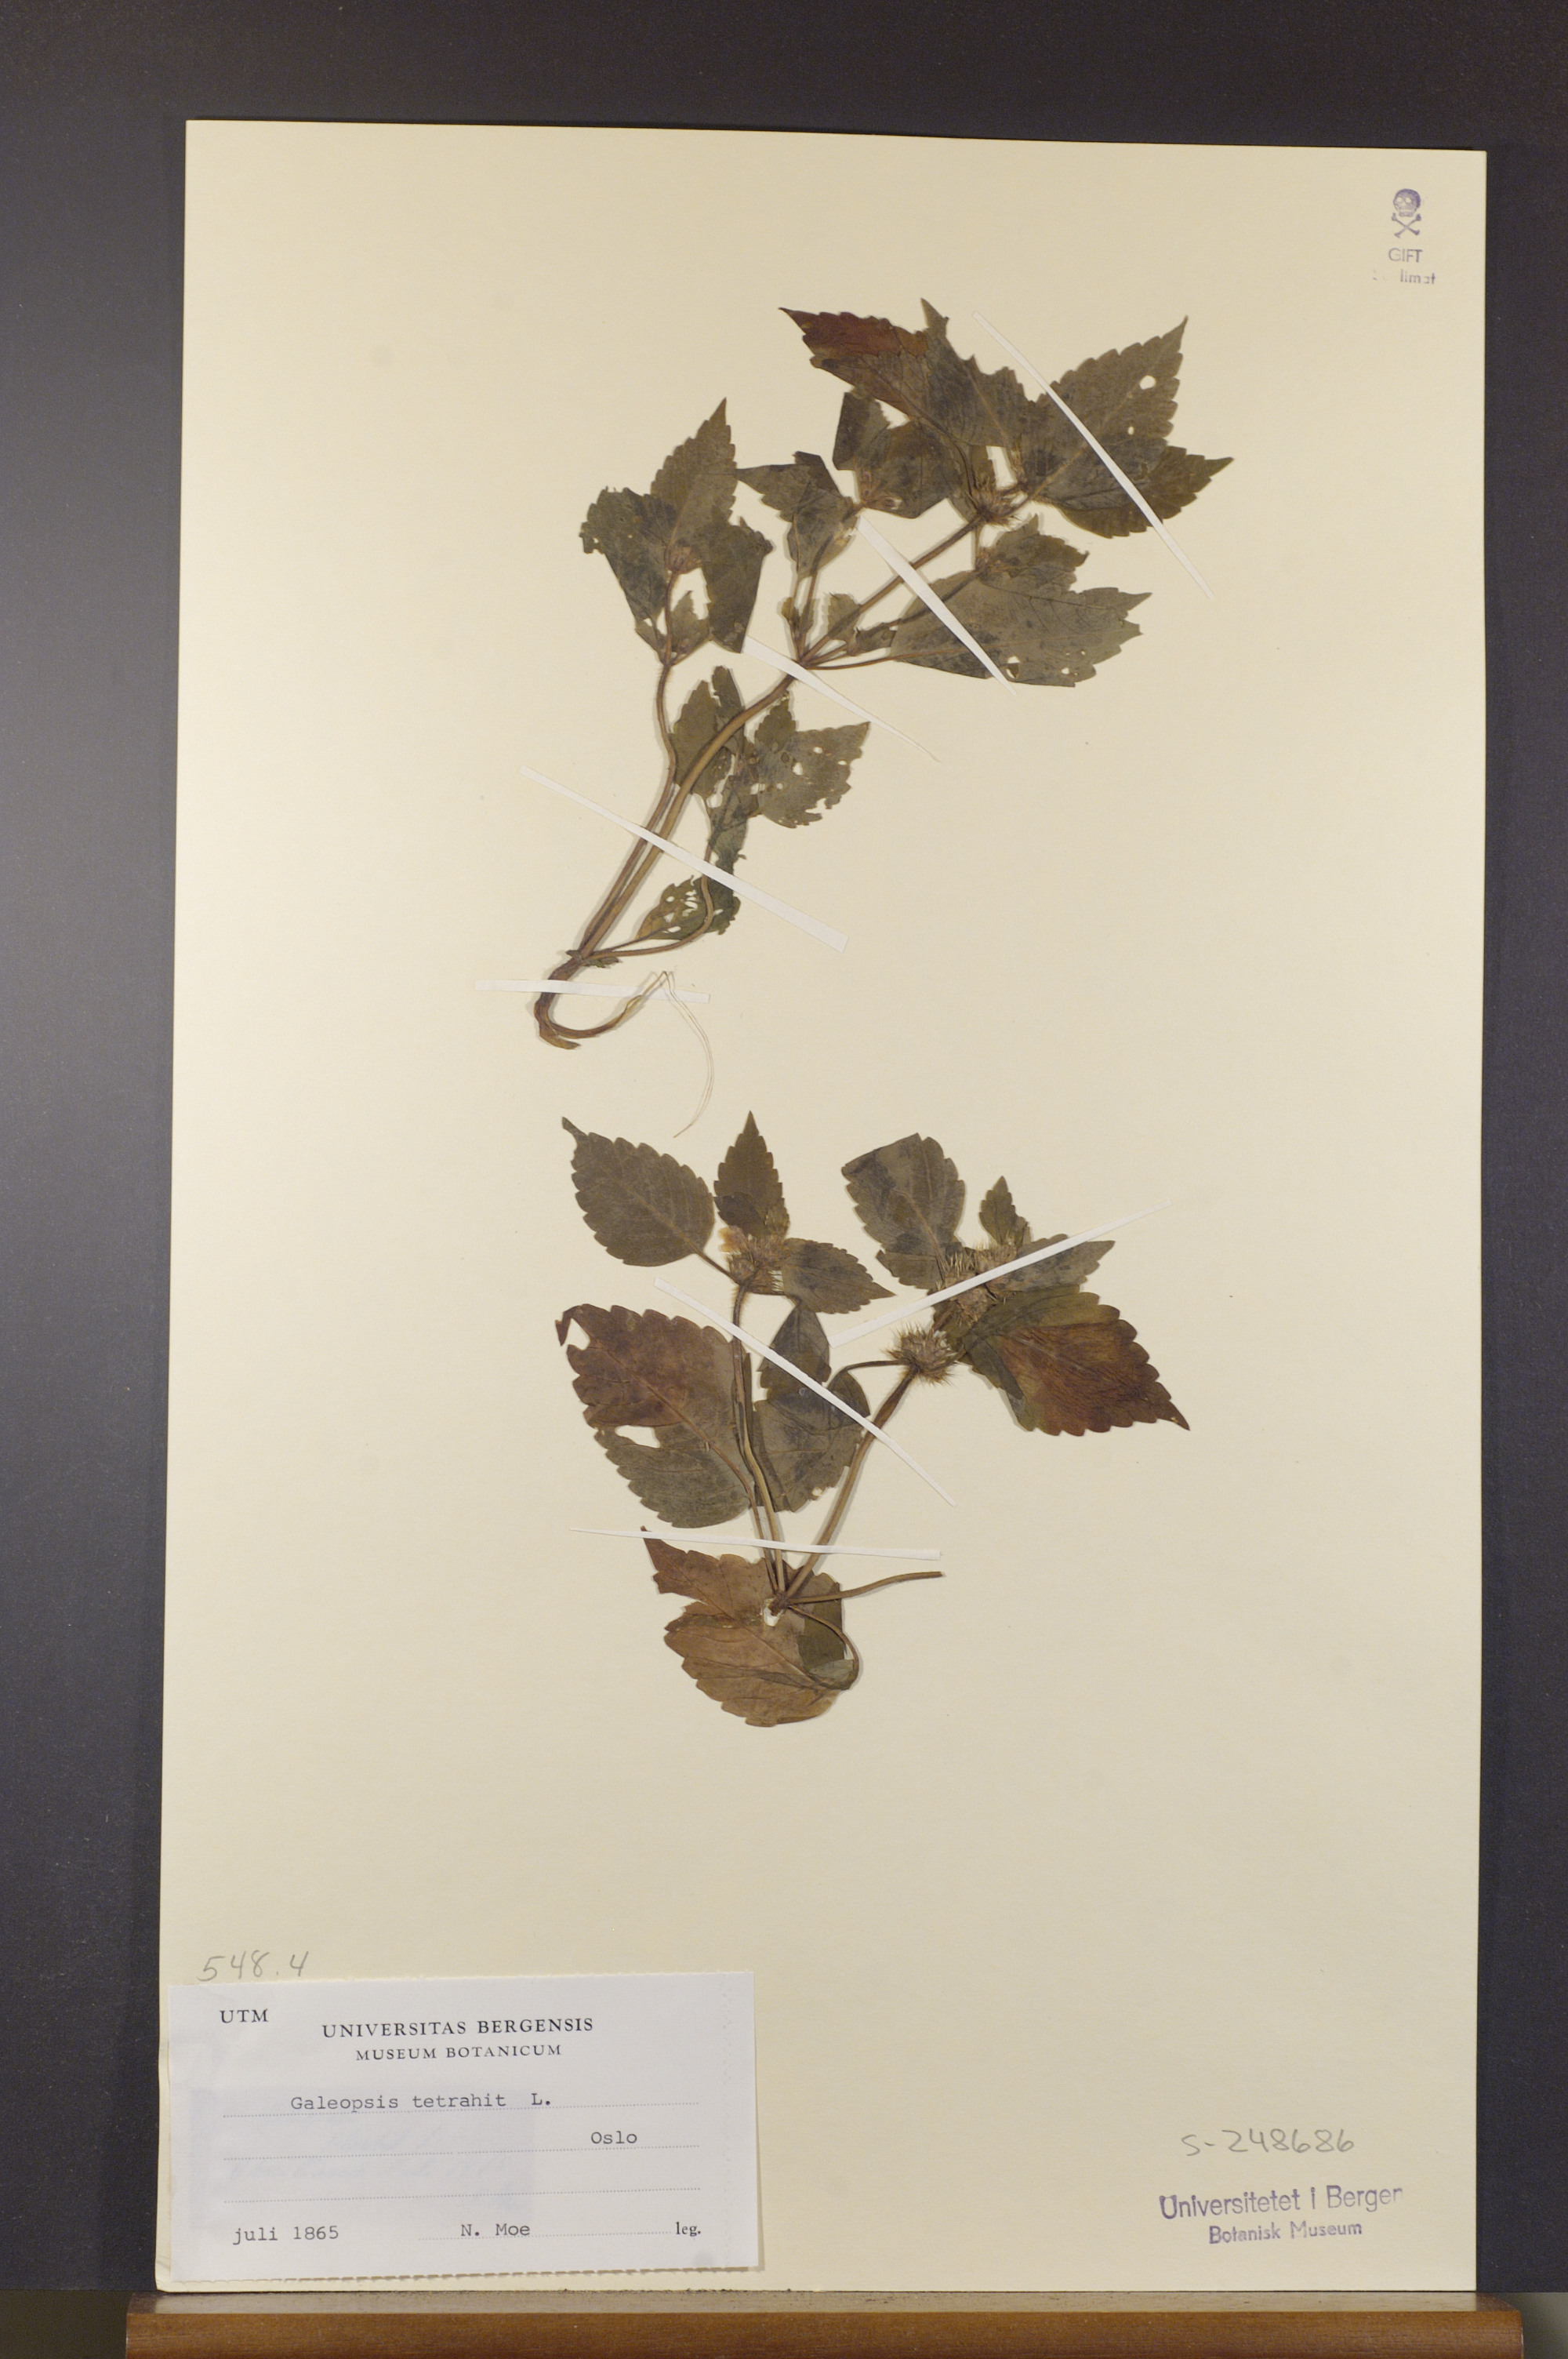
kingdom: Plantae
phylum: Tracheophyta
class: Magnoliopsida
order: Lamiales
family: Lamiaceae
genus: Galeopsis
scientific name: Galeopsis tetrahit
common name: Common hemp-nettle
